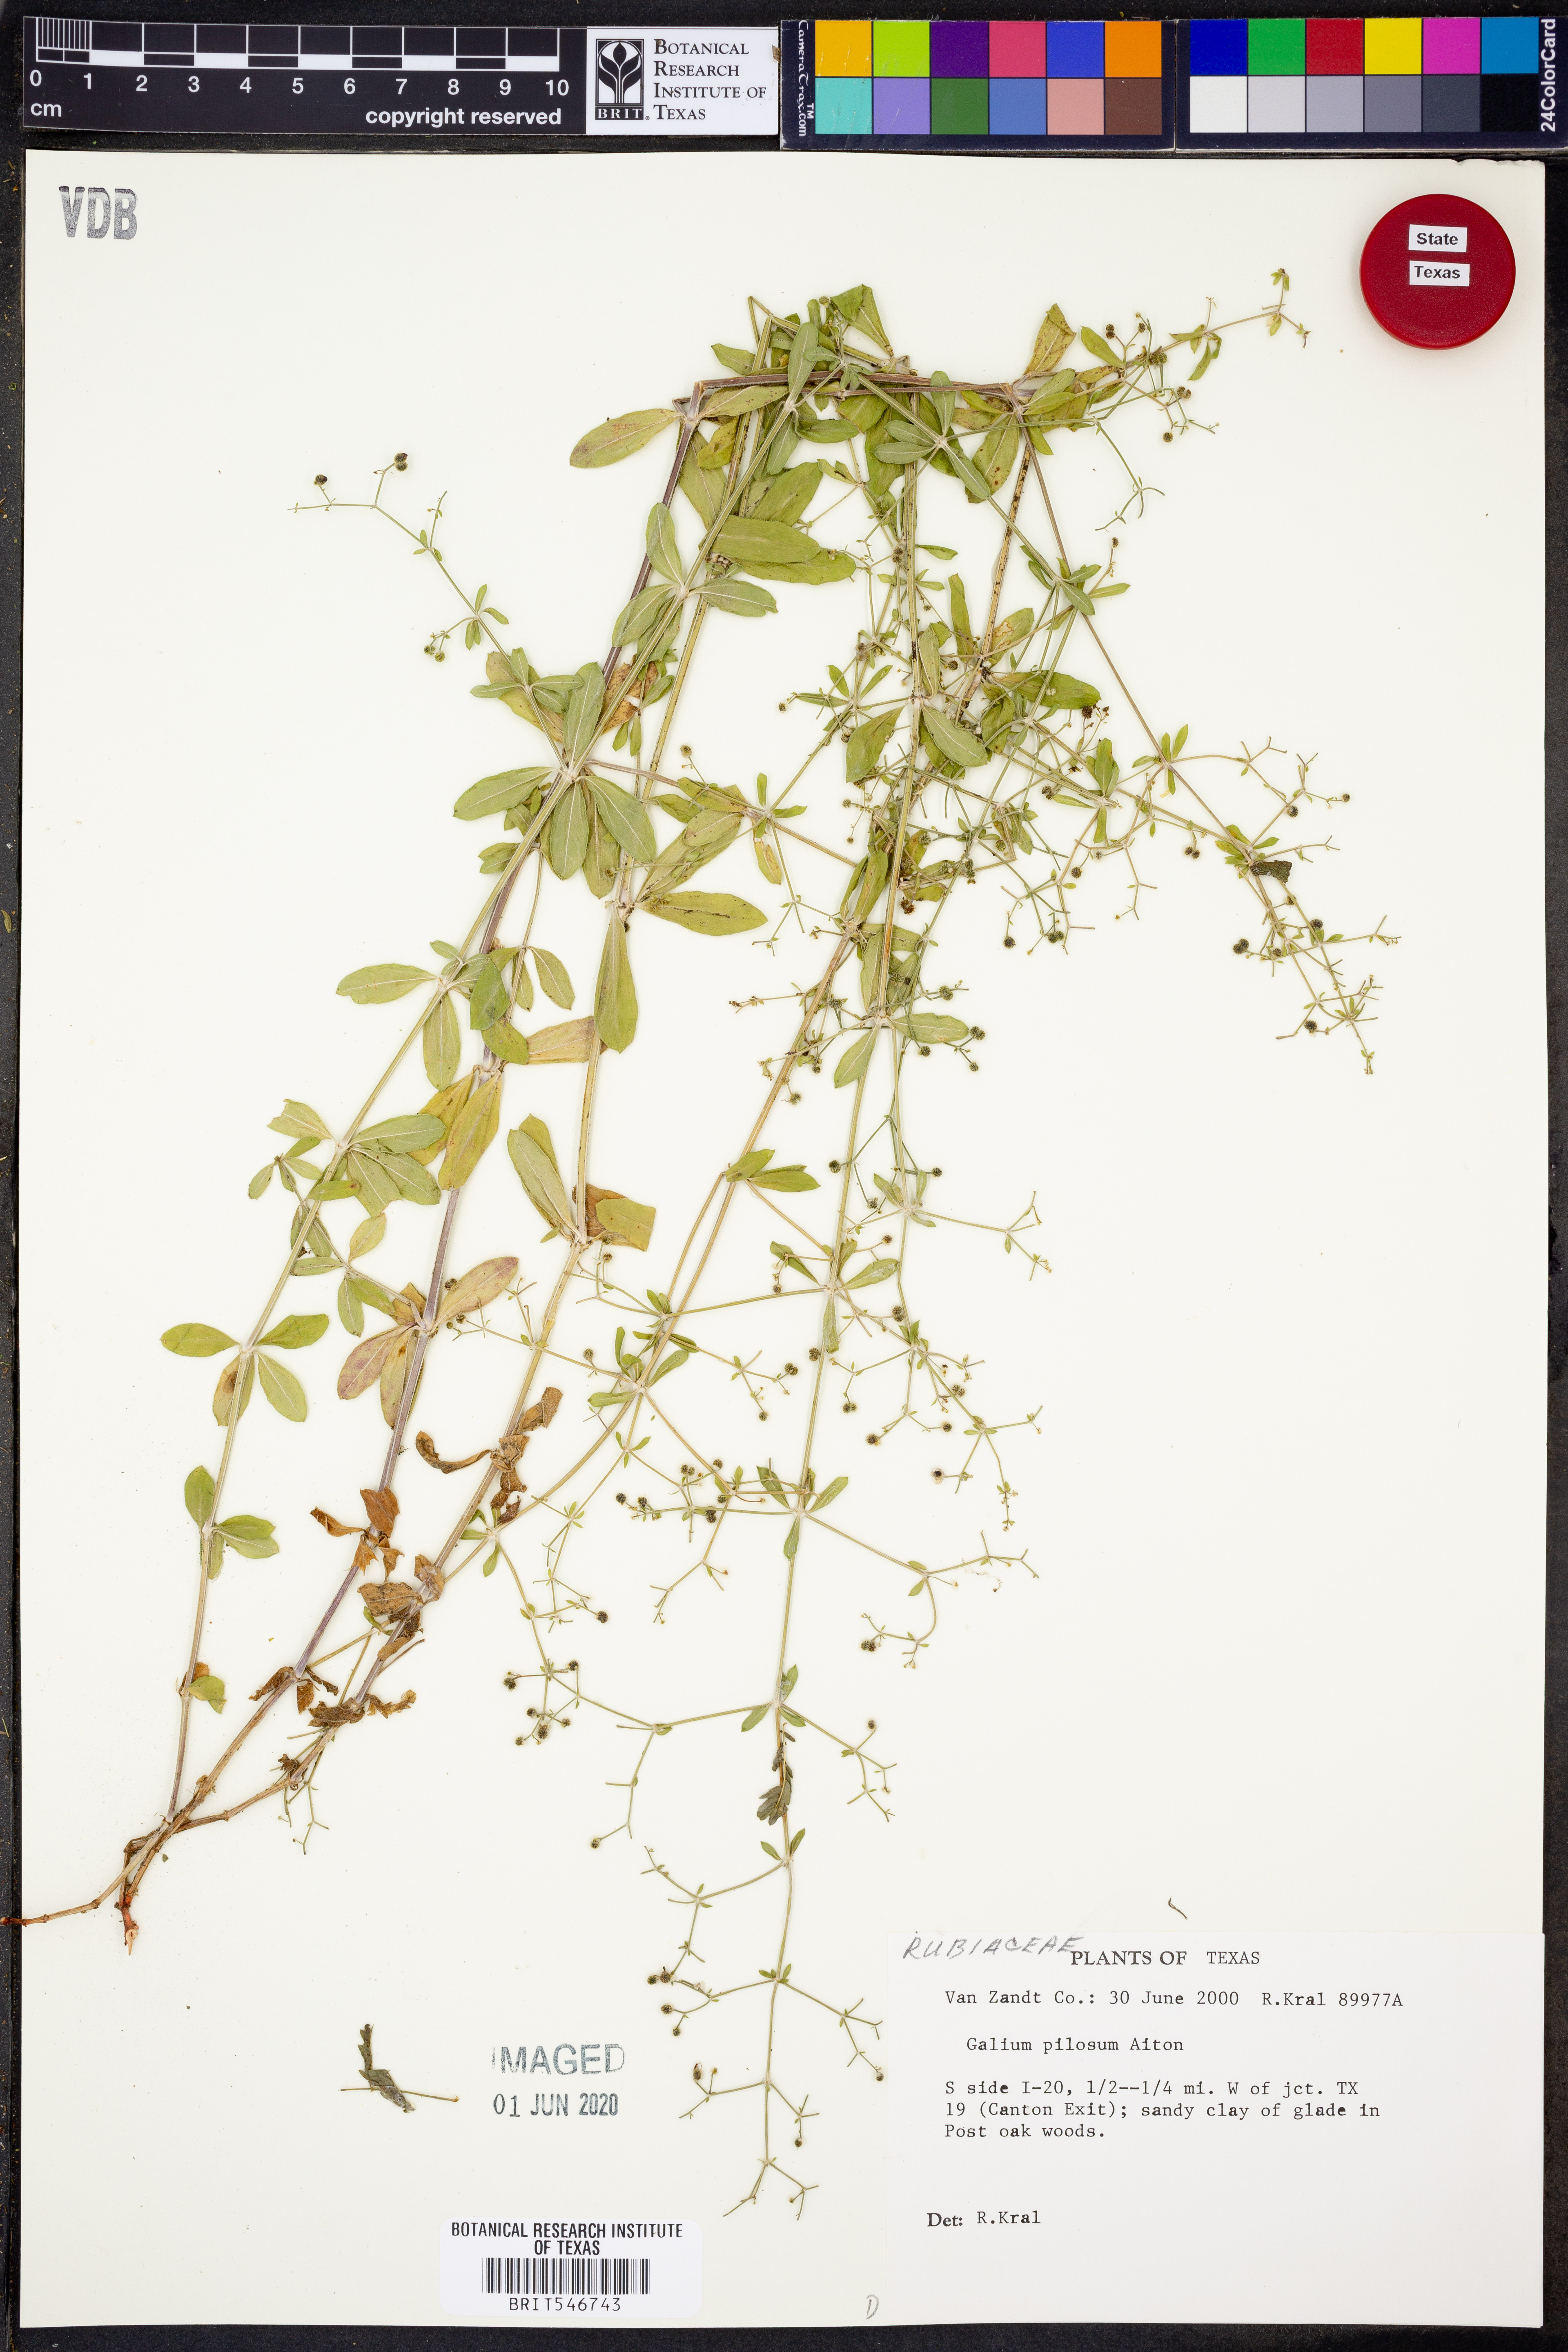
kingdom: Plantae
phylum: Tracheophyta
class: Magnoliopsida
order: Gentianales
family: Rubiaceae
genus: Galium
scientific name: Galium pilosum
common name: Hairy bedstraw
